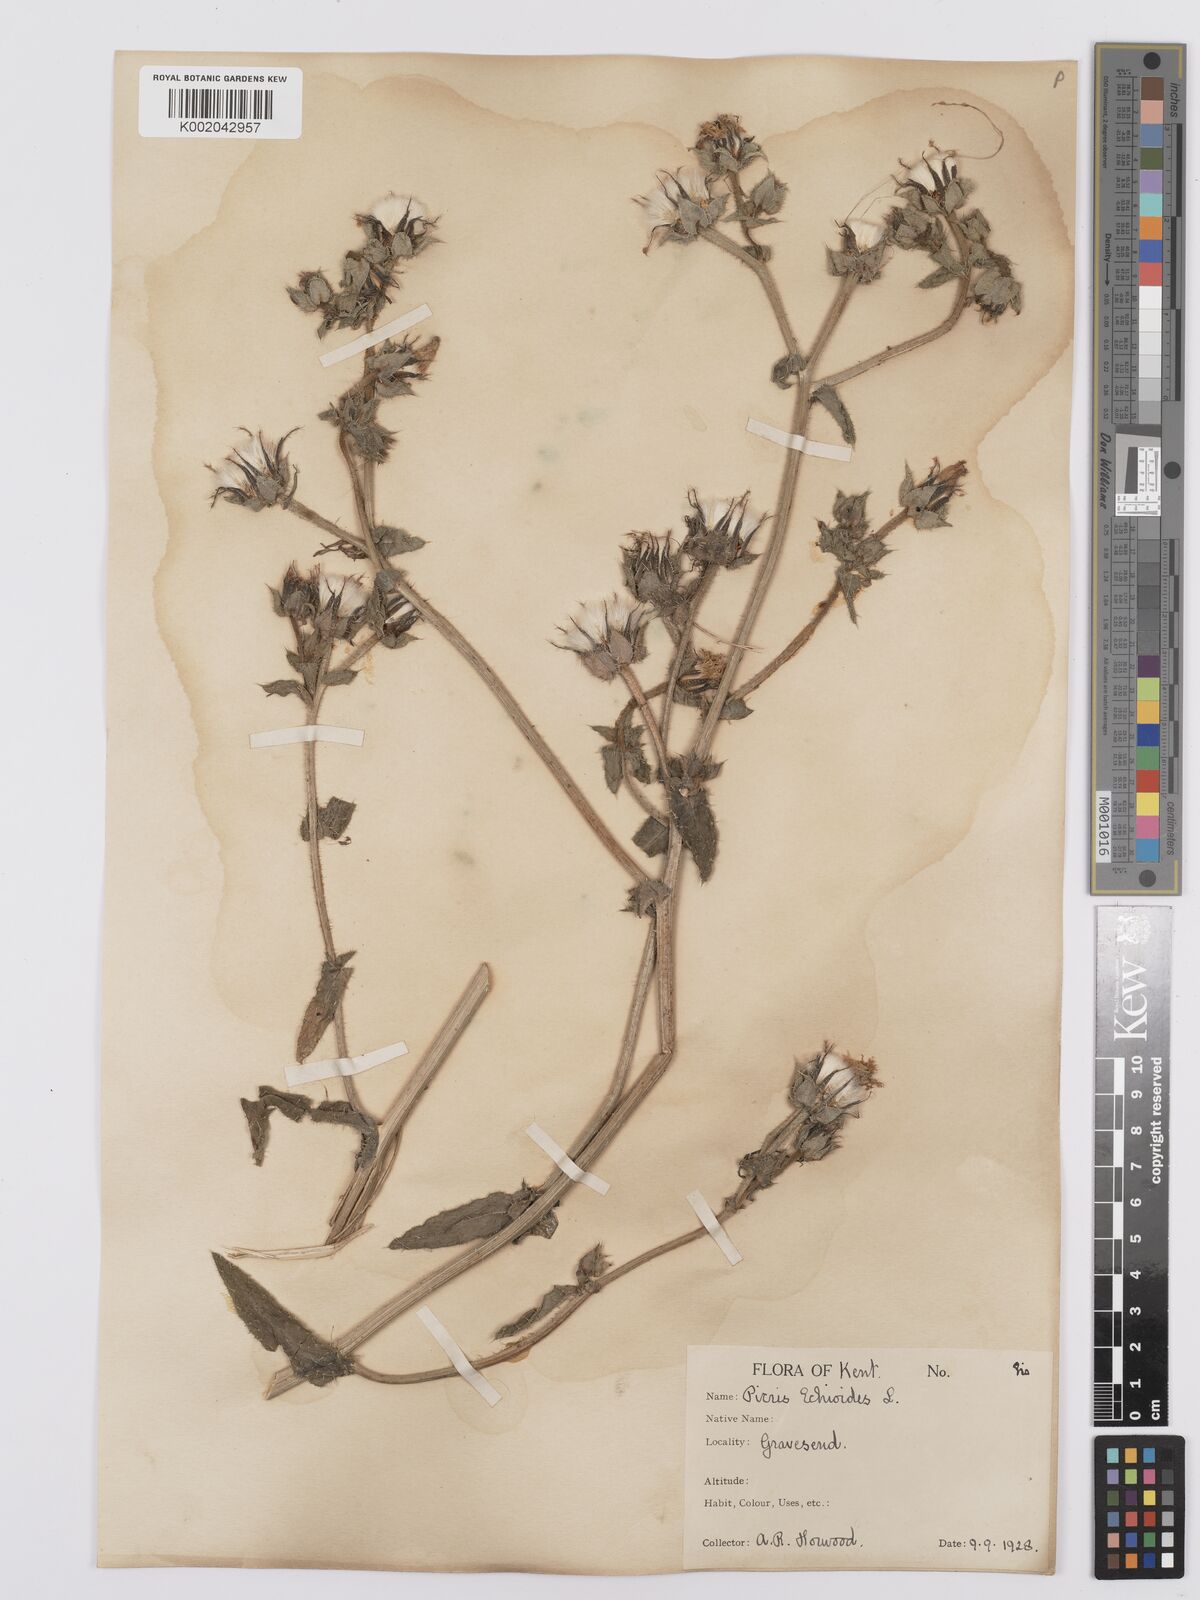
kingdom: Plantae
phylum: Tracheophyta
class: Magnoliopsida
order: Asterales
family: Asteraceae
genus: Helminthotheca
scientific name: Helminthotheca echioides
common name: Ox-tongue
